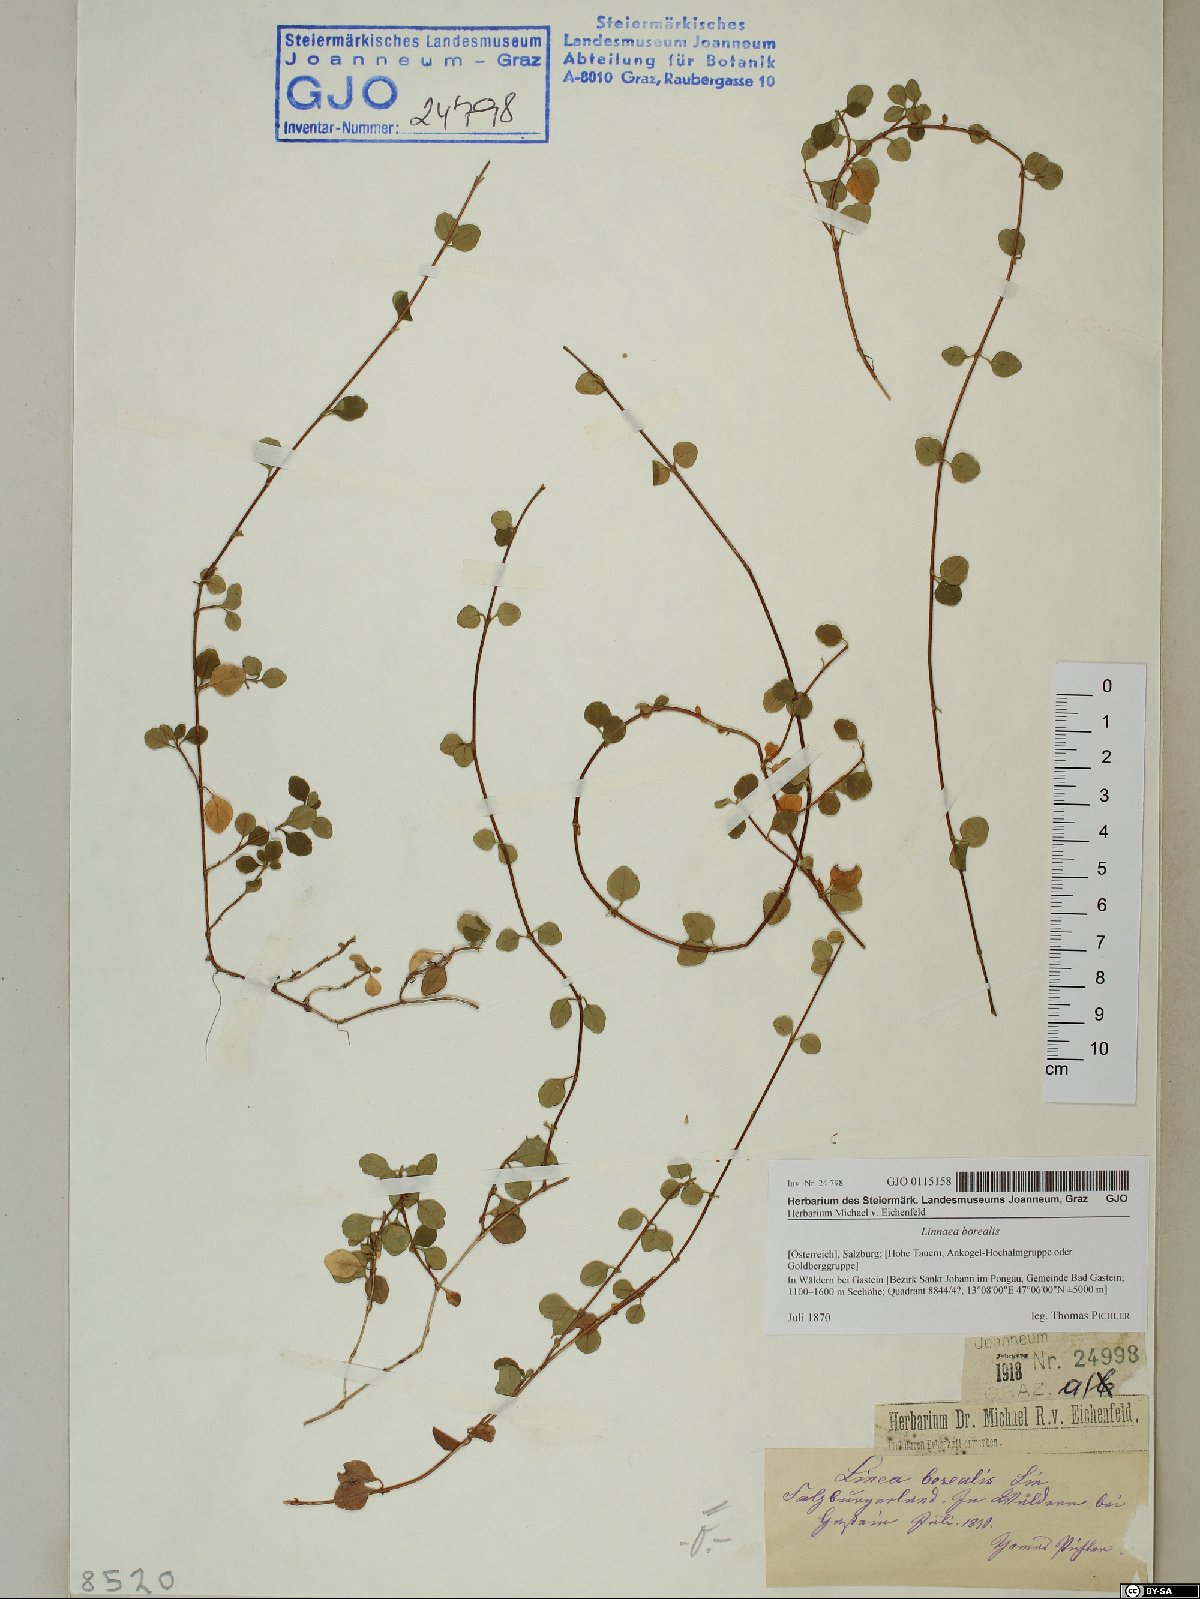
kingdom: Plantae
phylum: Tracheophyta
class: Magnoliopsida
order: Dipsacales
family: Caprifoliaceae
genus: Linnaea
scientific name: Linnaea borealis
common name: Twinflower
